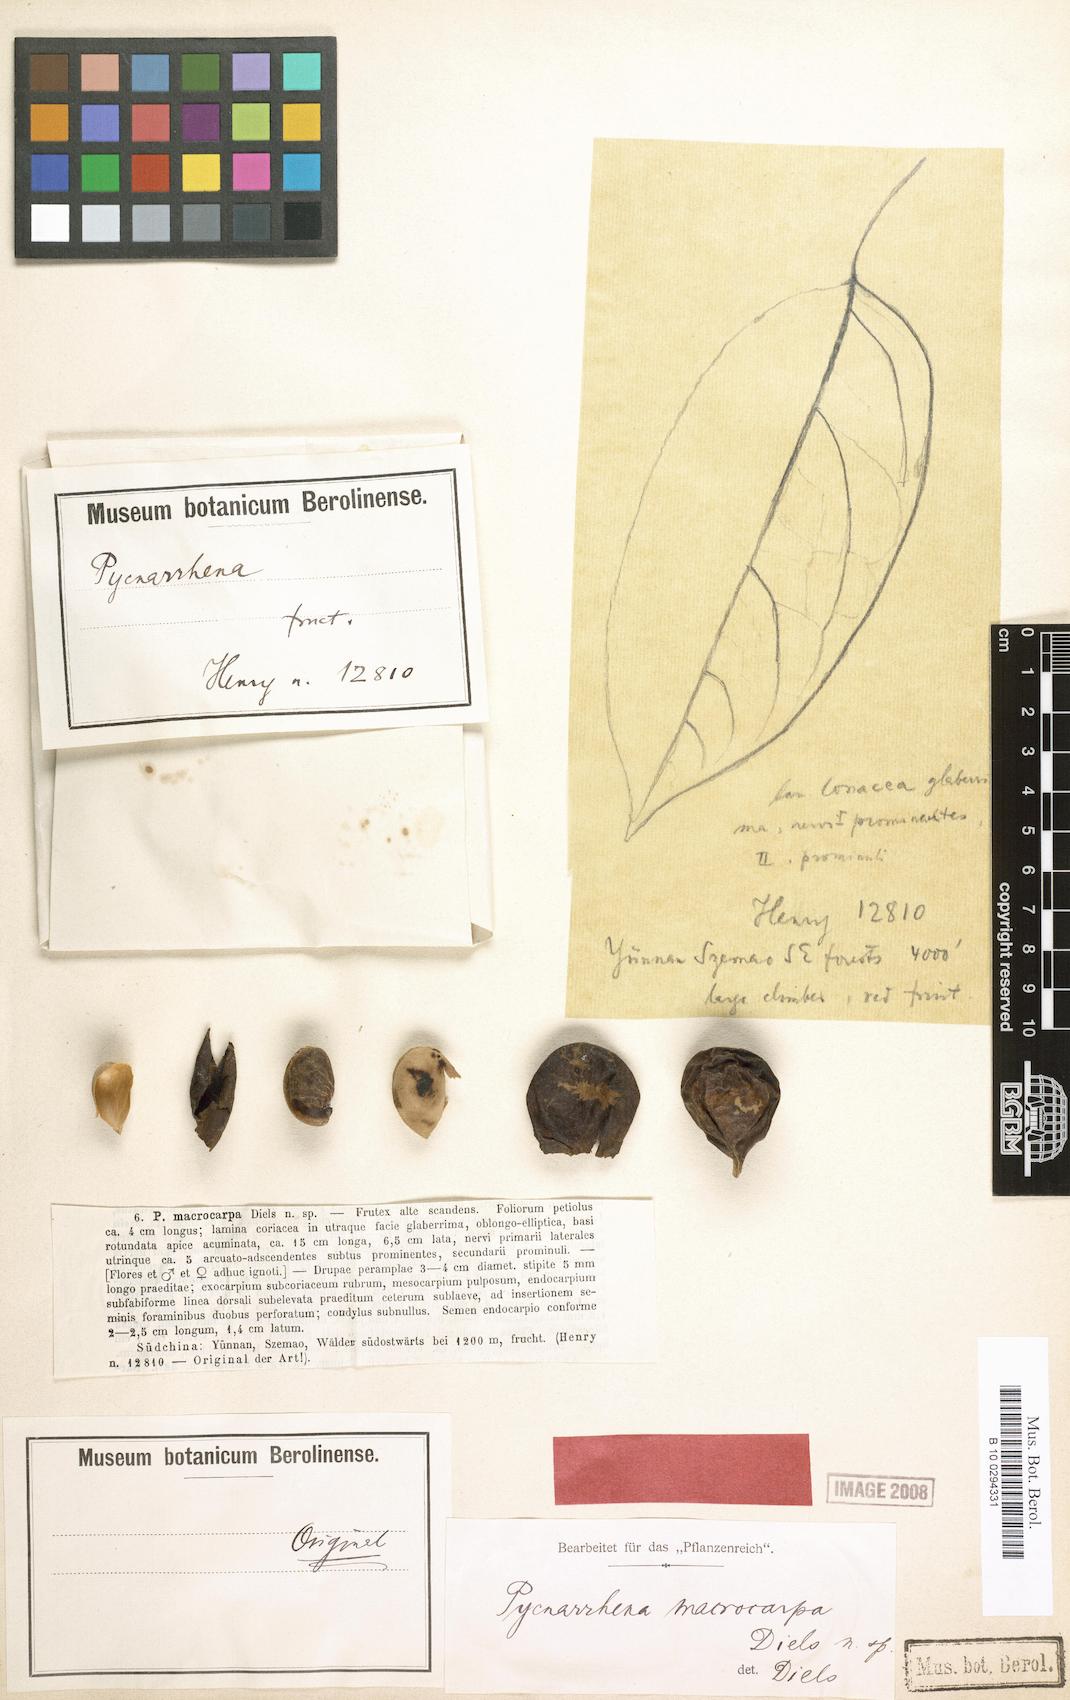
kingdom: Plantae
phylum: Tracheophyta
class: Magnoliopsida
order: Ranunculales
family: Menispermaceae
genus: Eleutharrhena
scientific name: Eleutharrhena macrocarpa
